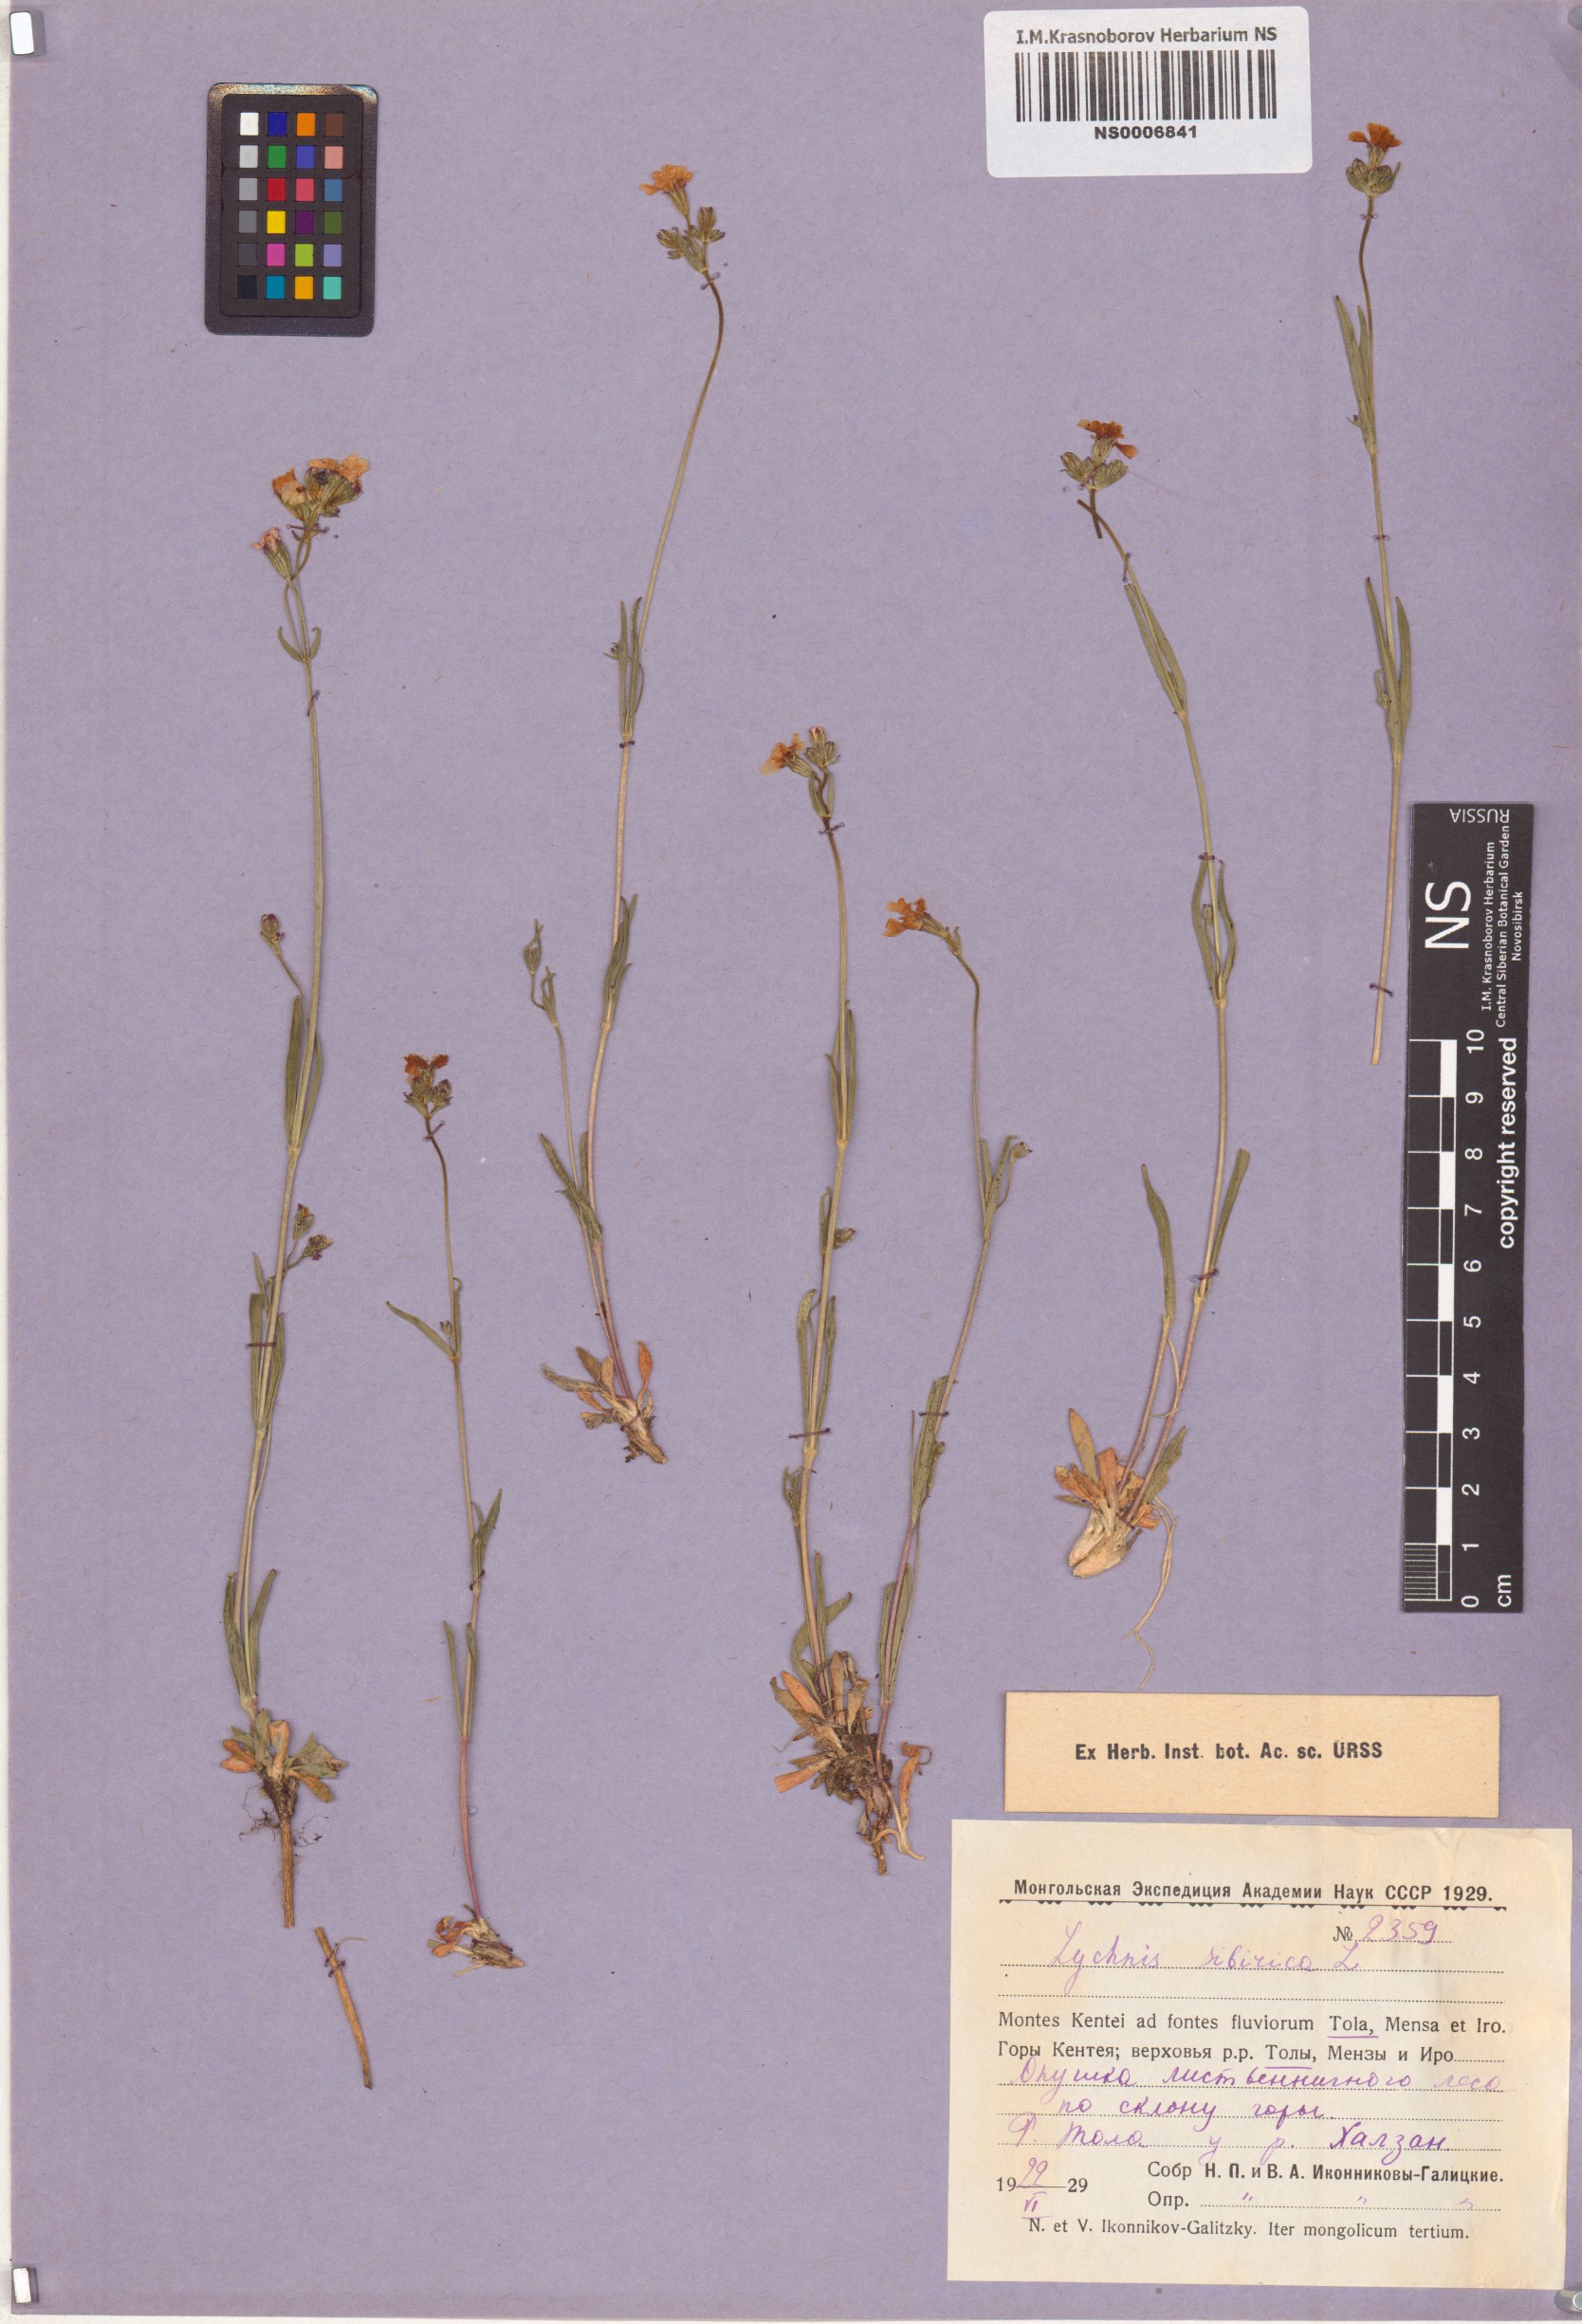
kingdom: Plantae
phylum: Tracheophyta
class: Magnoliopsida
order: Caryophyllales
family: Caryophyllaceae
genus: Silene
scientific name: Silene orientalimongolica
